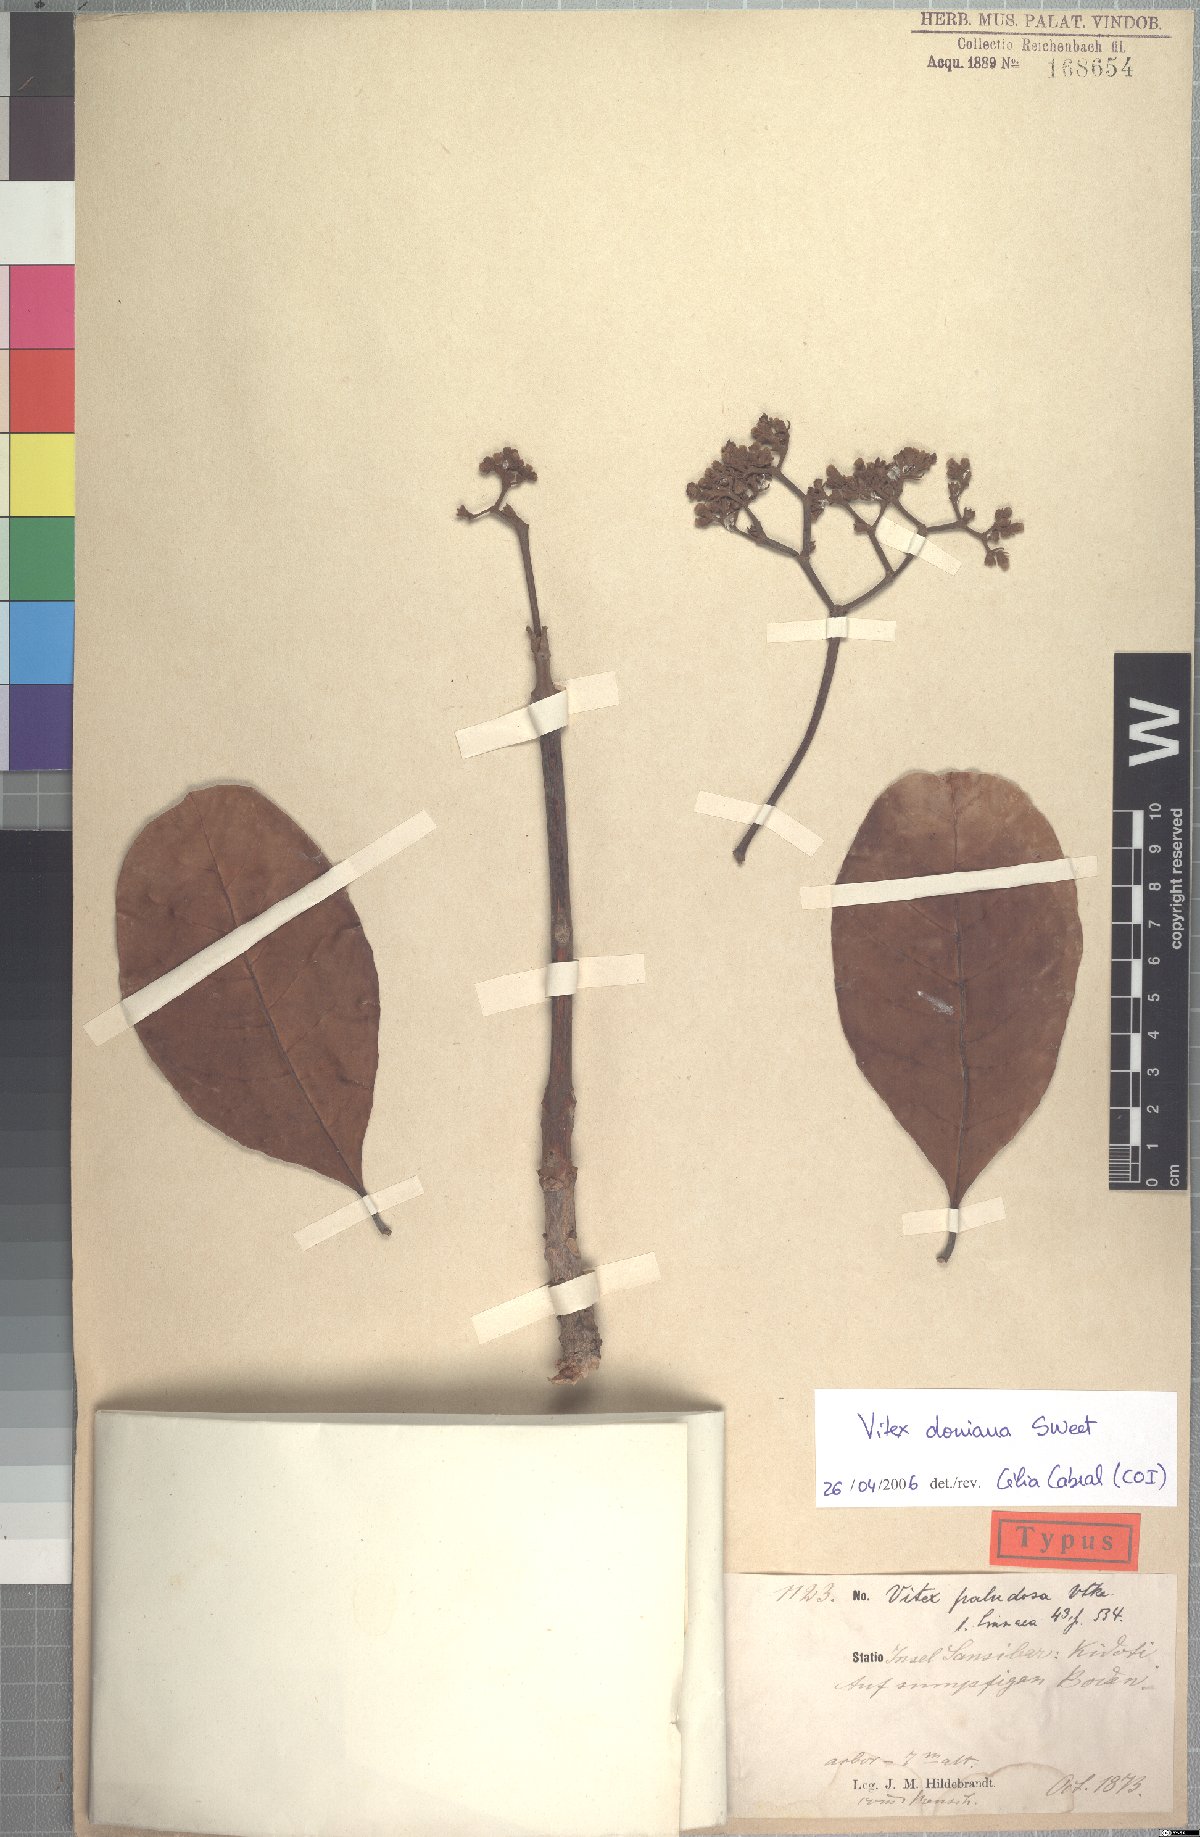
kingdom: Plantae
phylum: Tracheophyta
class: Magnoliopsida
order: Lamiales
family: Lamiaceae
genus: Vitex
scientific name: Vitex doniana
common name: Black plum
